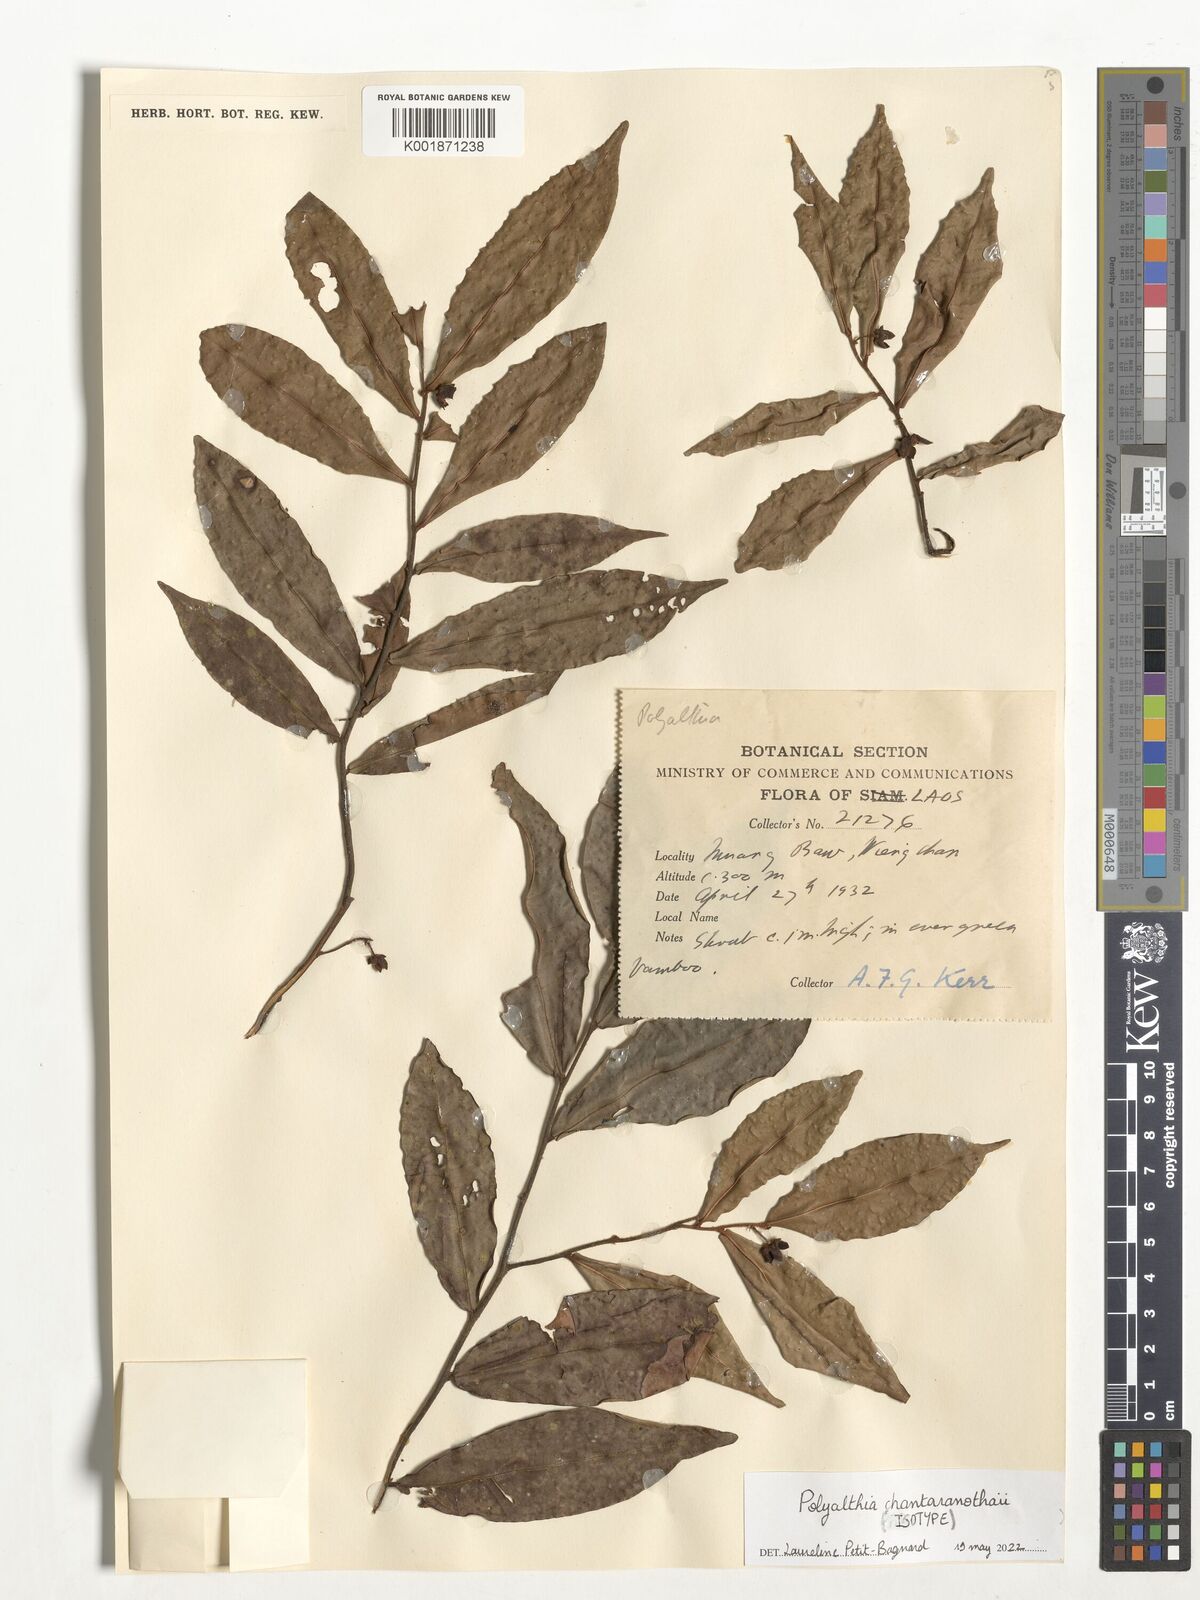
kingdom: Plantae
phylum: Tracheophyta
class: Magnoliopsida
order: Magnoliales
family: Annonaceae
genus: Polyalthia
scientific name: Polyalthia
